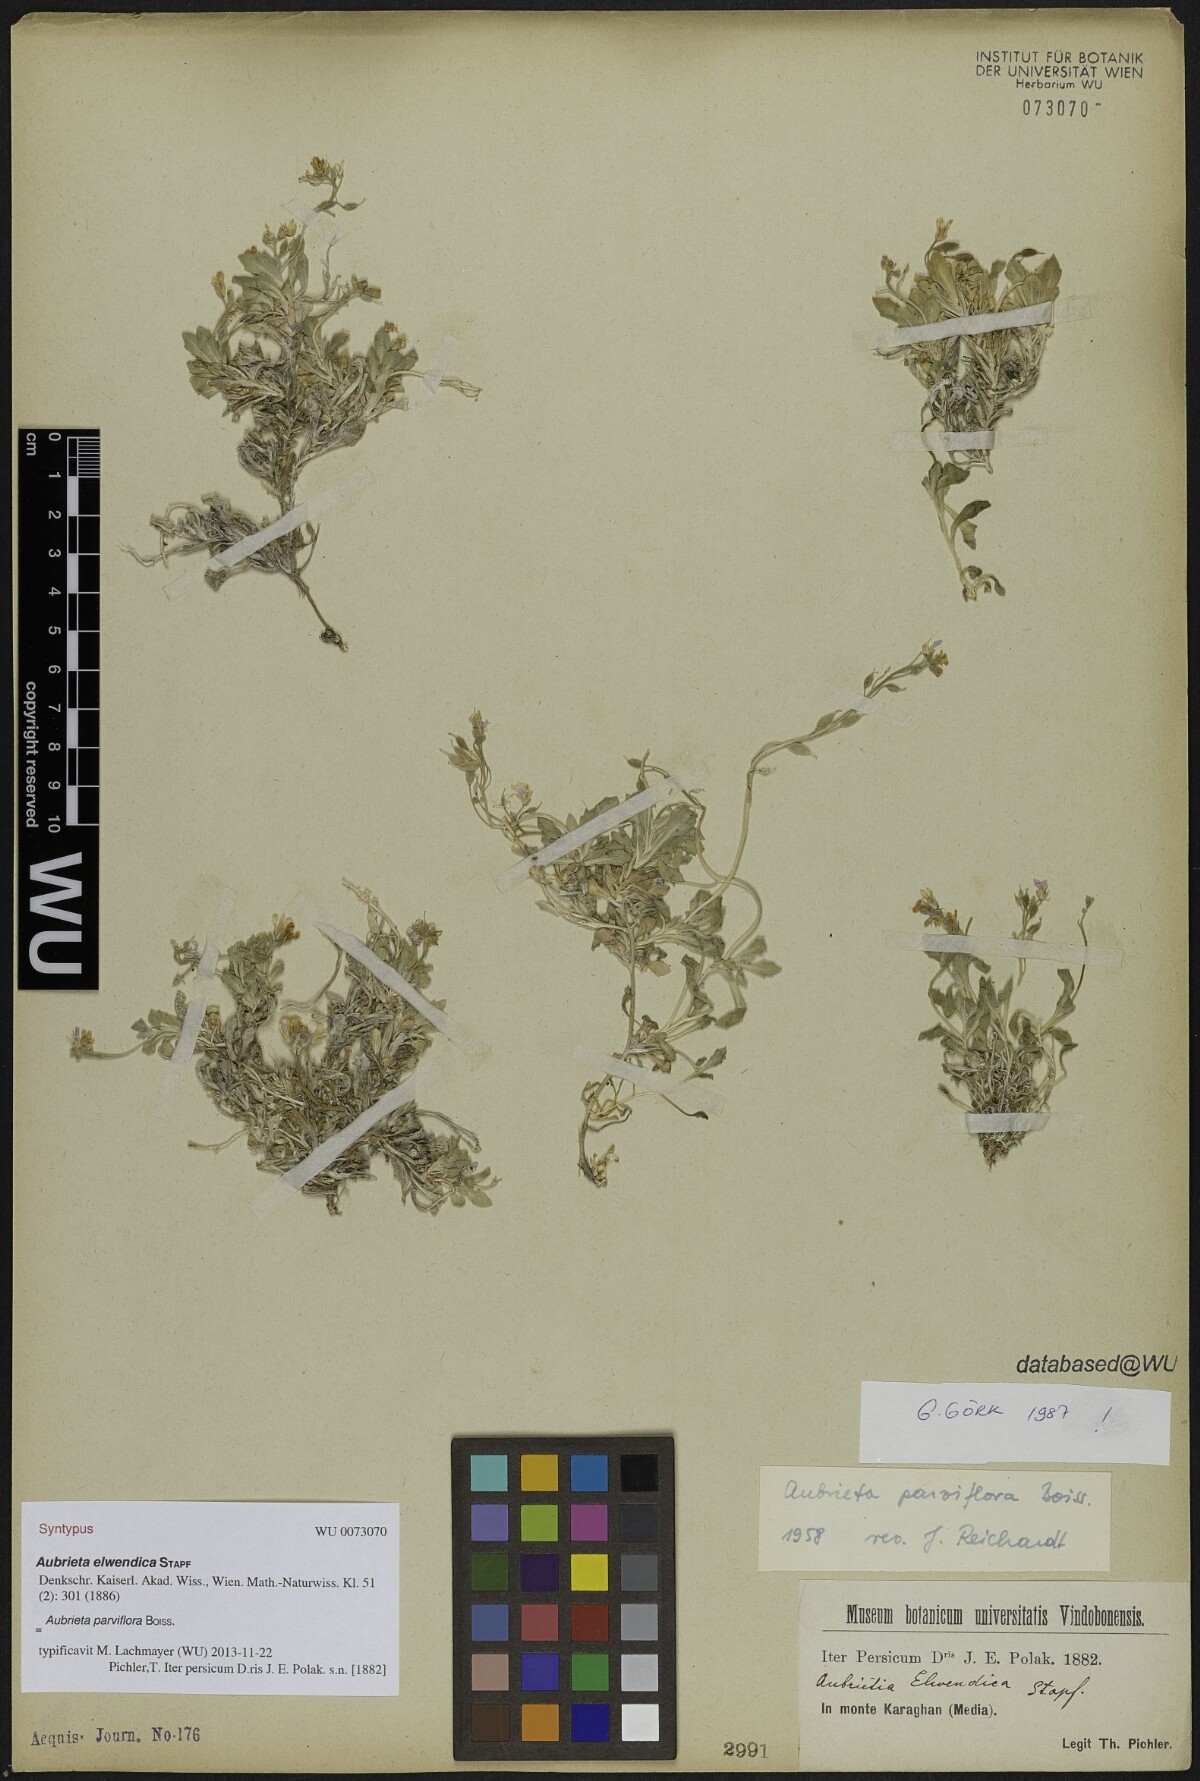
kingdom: Plantae
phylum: Tracheophyta
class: Magnoliopsida
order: Brassicales
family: Brassicaceae
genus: Aubrieta
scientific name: Aubrieta parviflora
